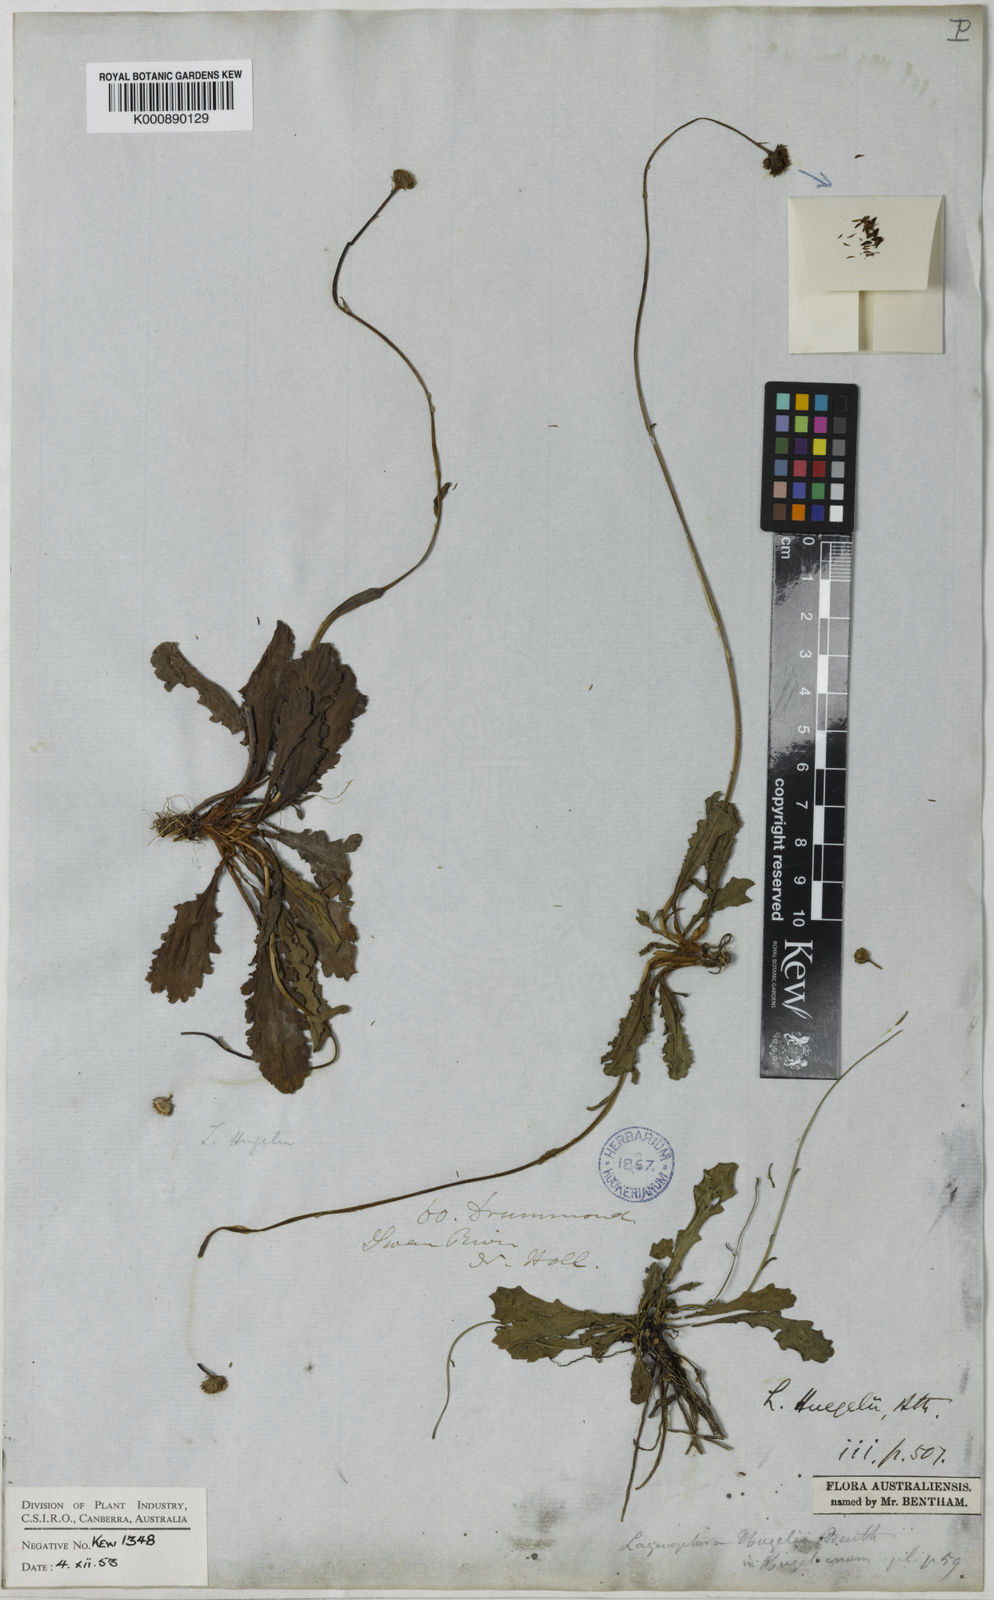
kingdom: Plantae
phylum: Tracheophyta
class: Magnoliopsida
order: Asterales
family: Asteraceae
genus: Lagenophora
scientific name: Lagenophora
